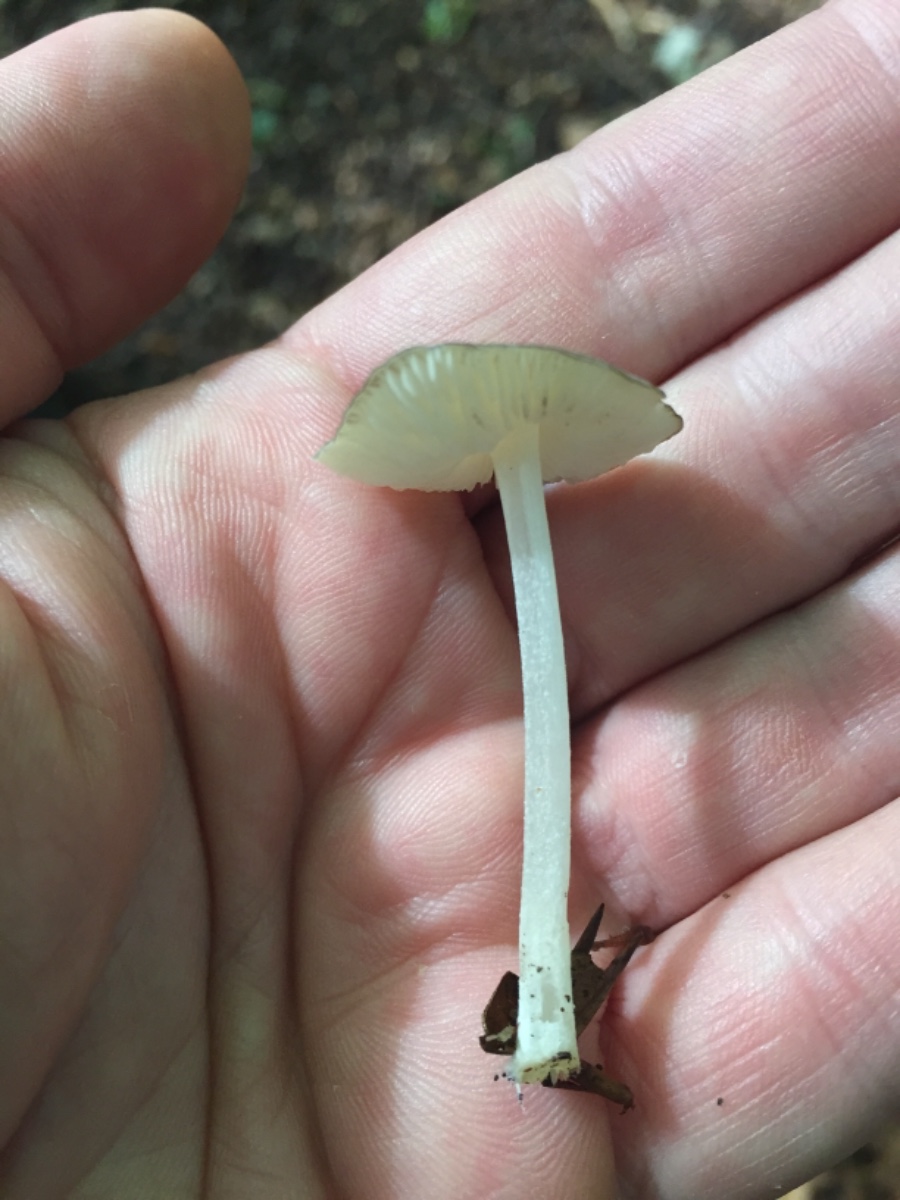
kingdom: Fungi
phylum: Basidiomycota
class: Agaricomycetes
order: Agaricales
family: Porotheleaceae
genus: Hydropodia
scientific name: Hydropodia subalpina
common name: vår-fnugfod
